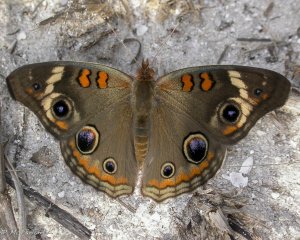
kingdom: Animalia
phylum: Arthropoda
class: Insecta
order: Lepidoptera
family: Nymphalidae
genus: Junonia
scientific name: Junonia coenia
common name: Common Buckeye
